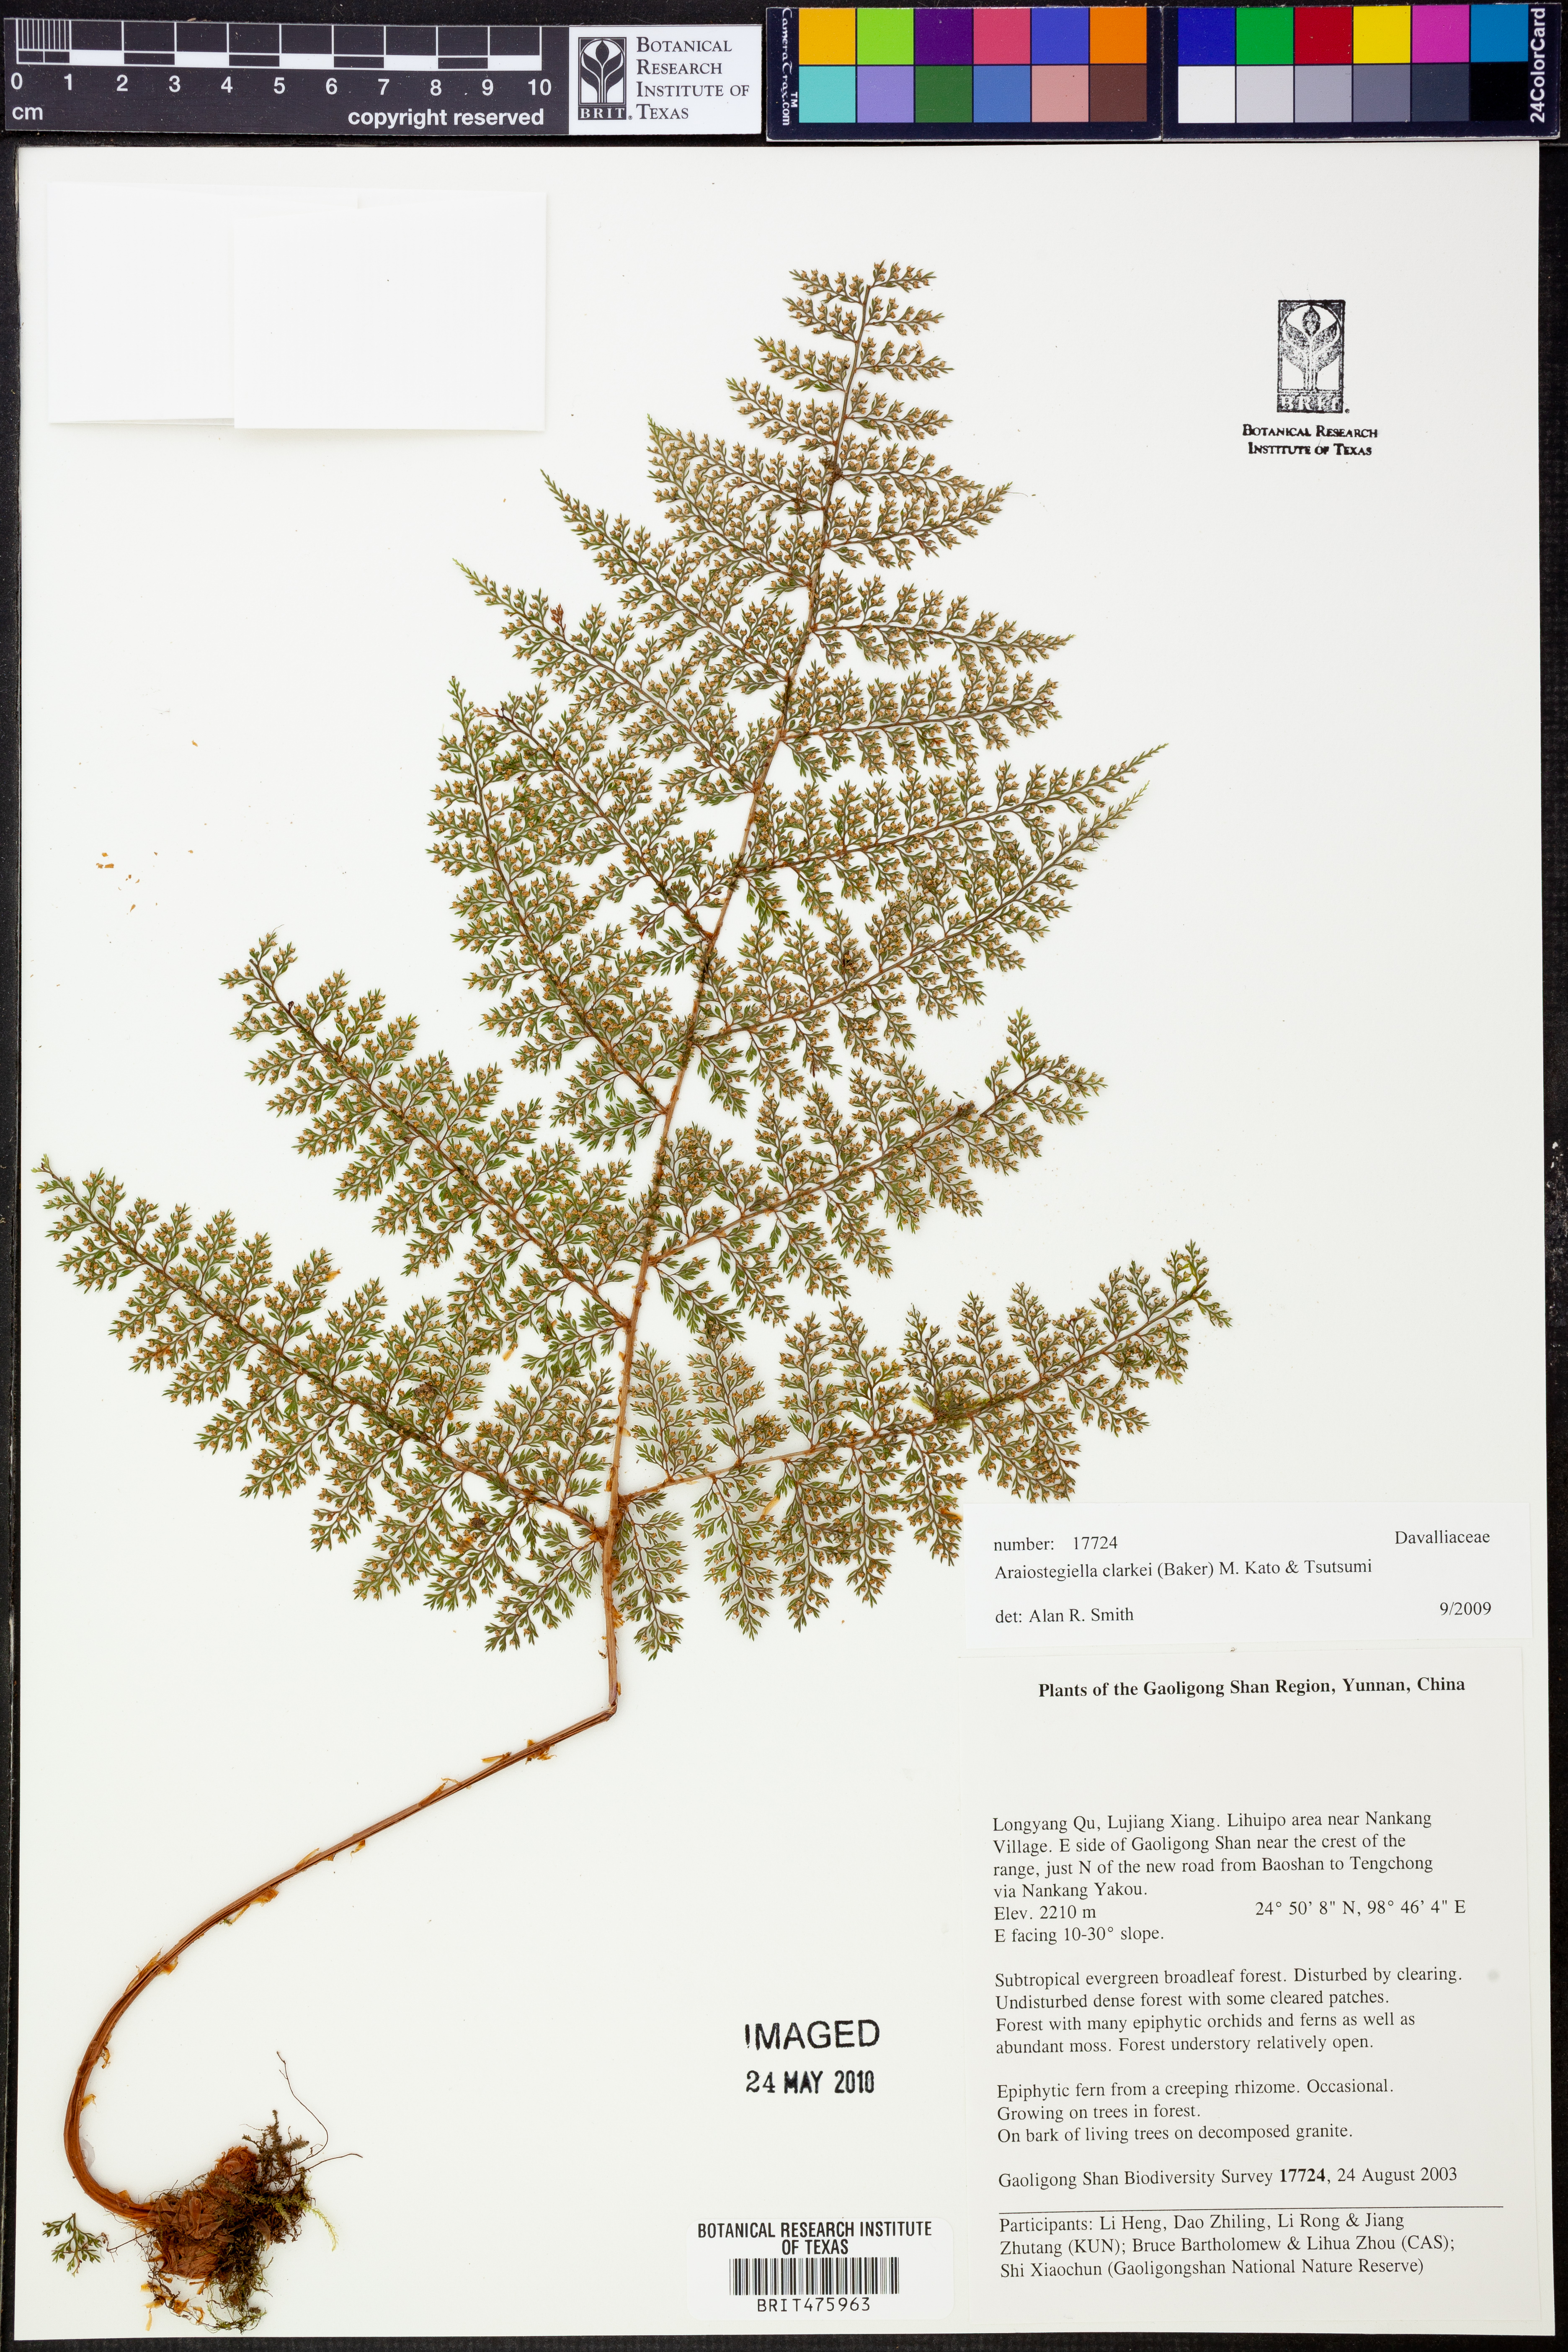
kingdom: Plantae
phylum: Tracheophyta
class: Polypodiopsida
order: Polypodiales
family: Davalliaceae
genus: Davallia
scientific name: Davallia hookeri
